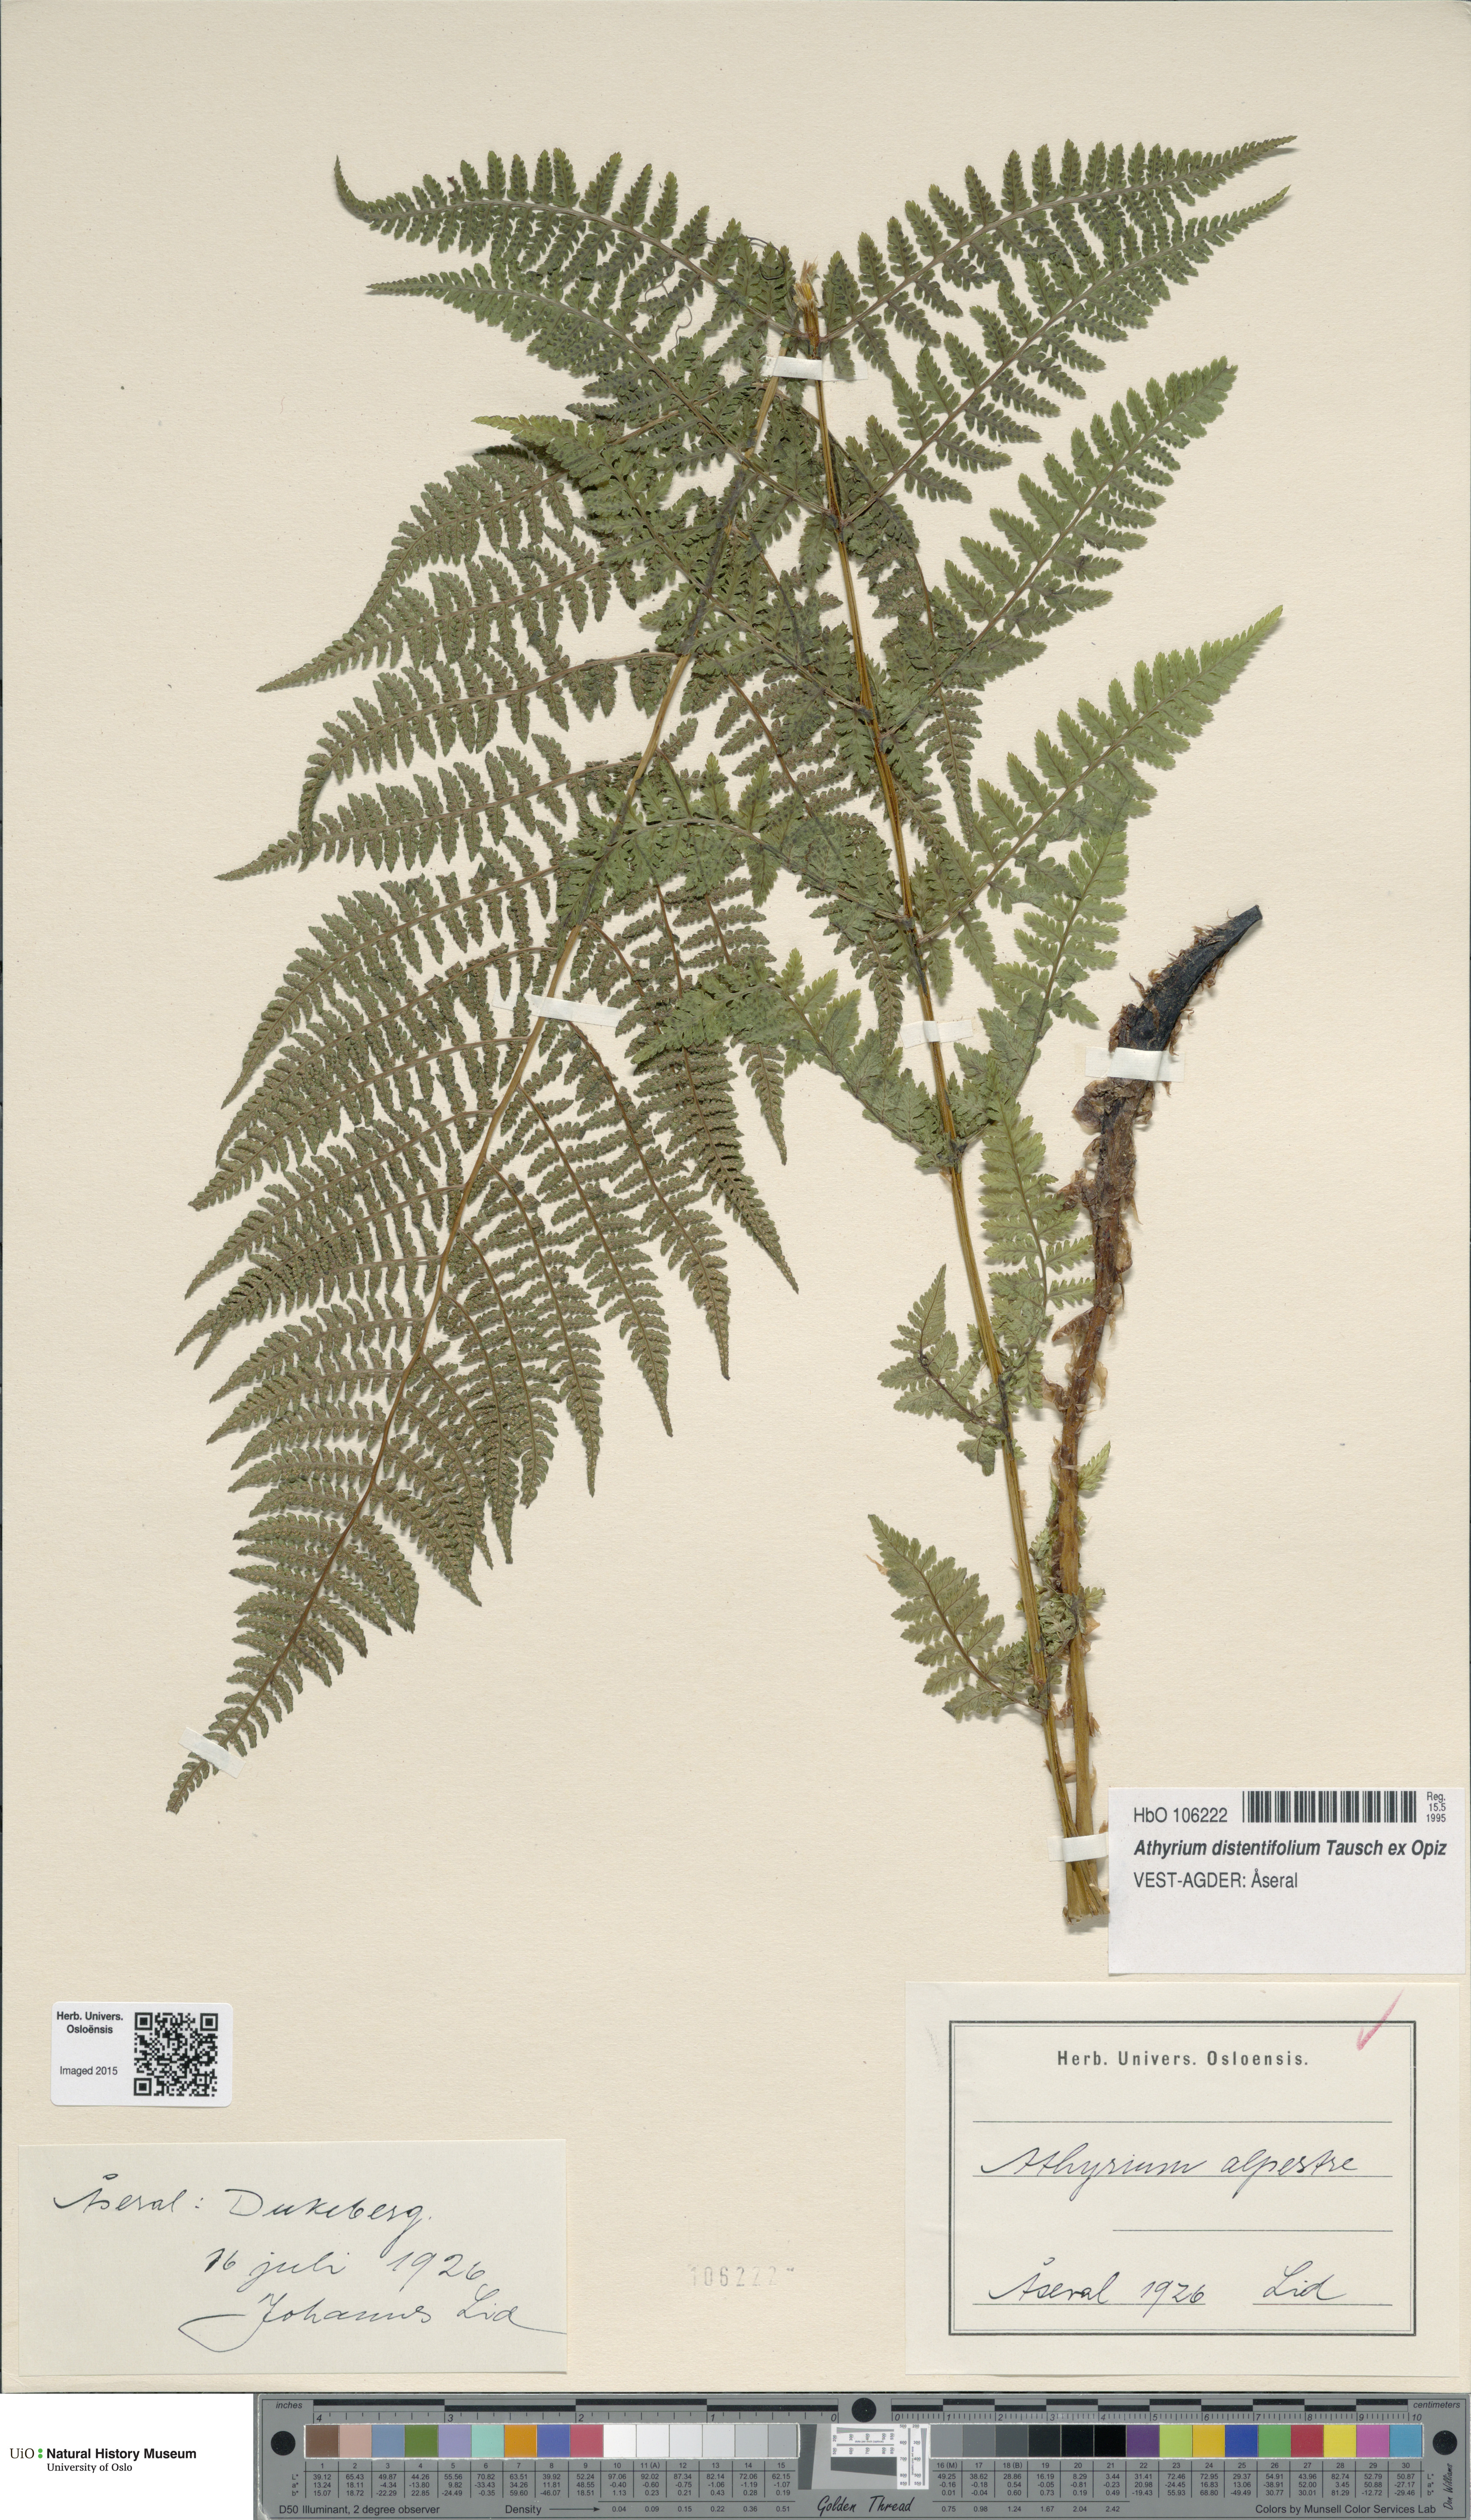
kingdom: Plantae
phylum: Tracheophyta
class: Polypodiopsida
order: Polypodiales
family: Athyriaceae
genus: Pseudathyrium
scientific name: Pseudathyrium alpestre
